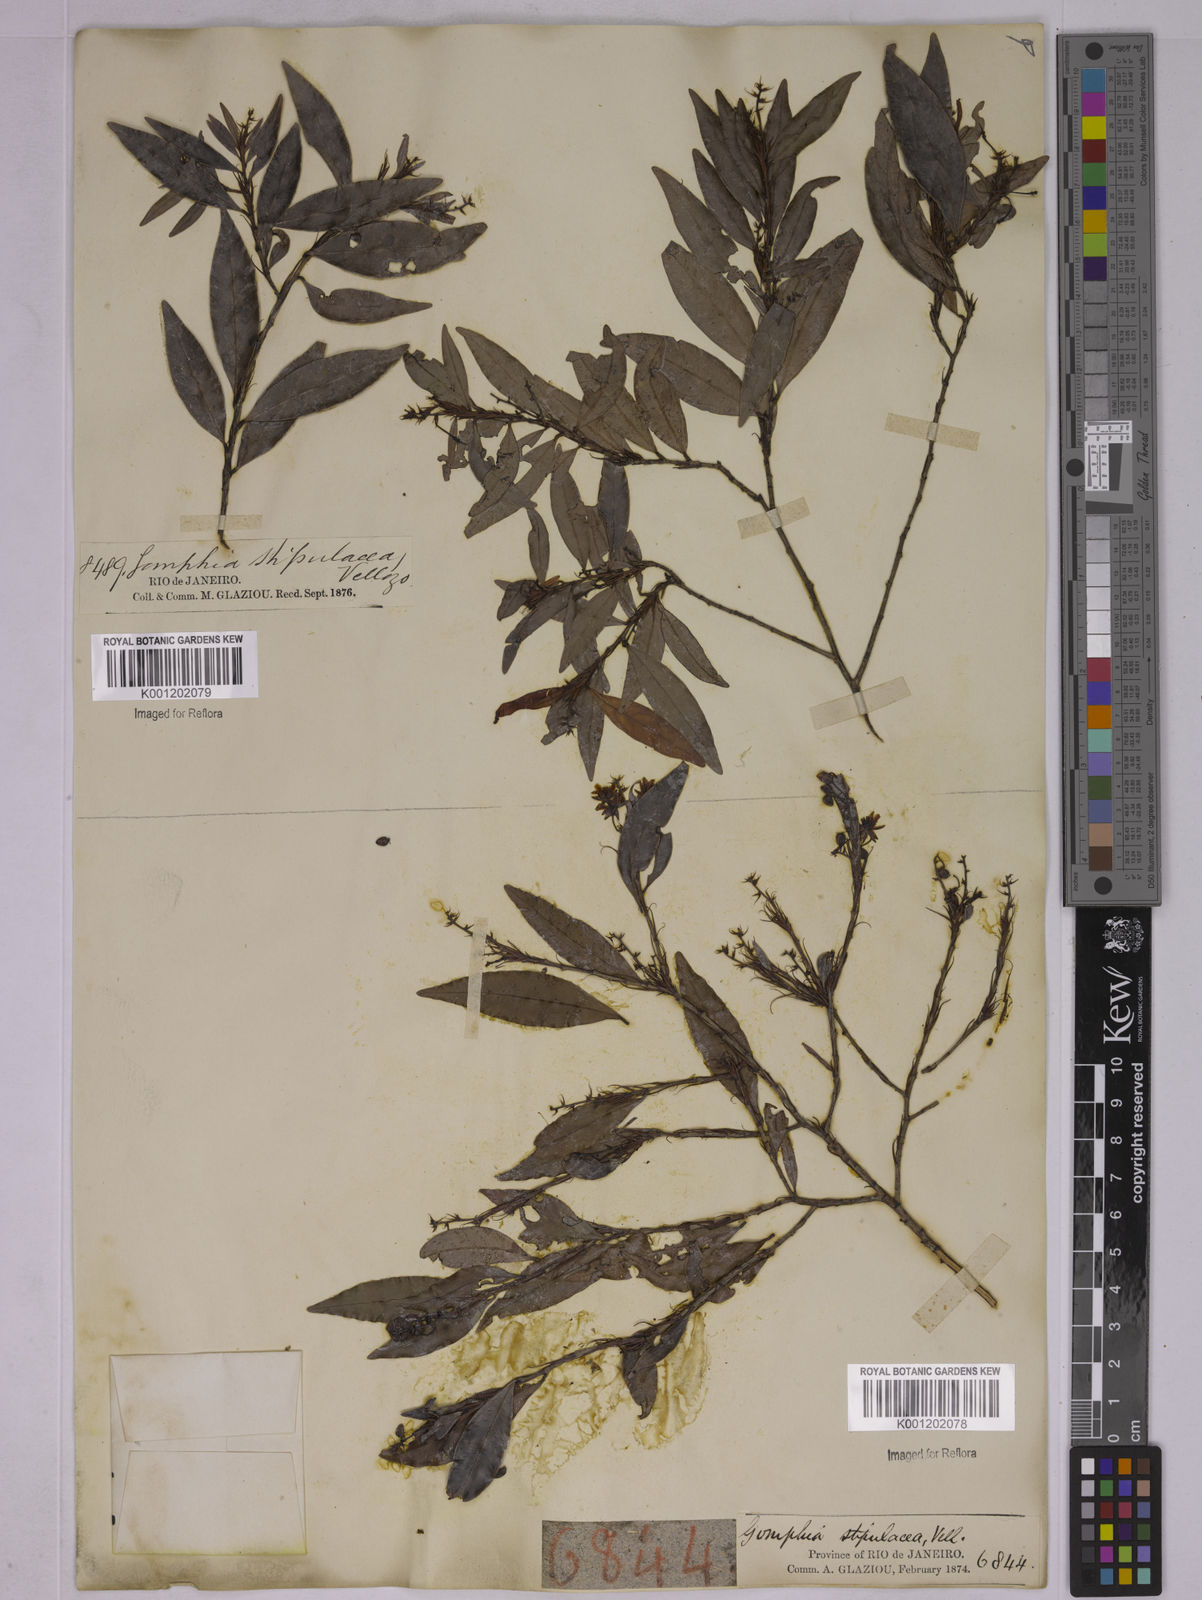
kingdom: Plantae
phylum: Tracheophyta
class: Magnoliopsida
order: Malpighiales
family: Ochnaceae
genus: Ouratea
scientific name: Ouratea stipulata
